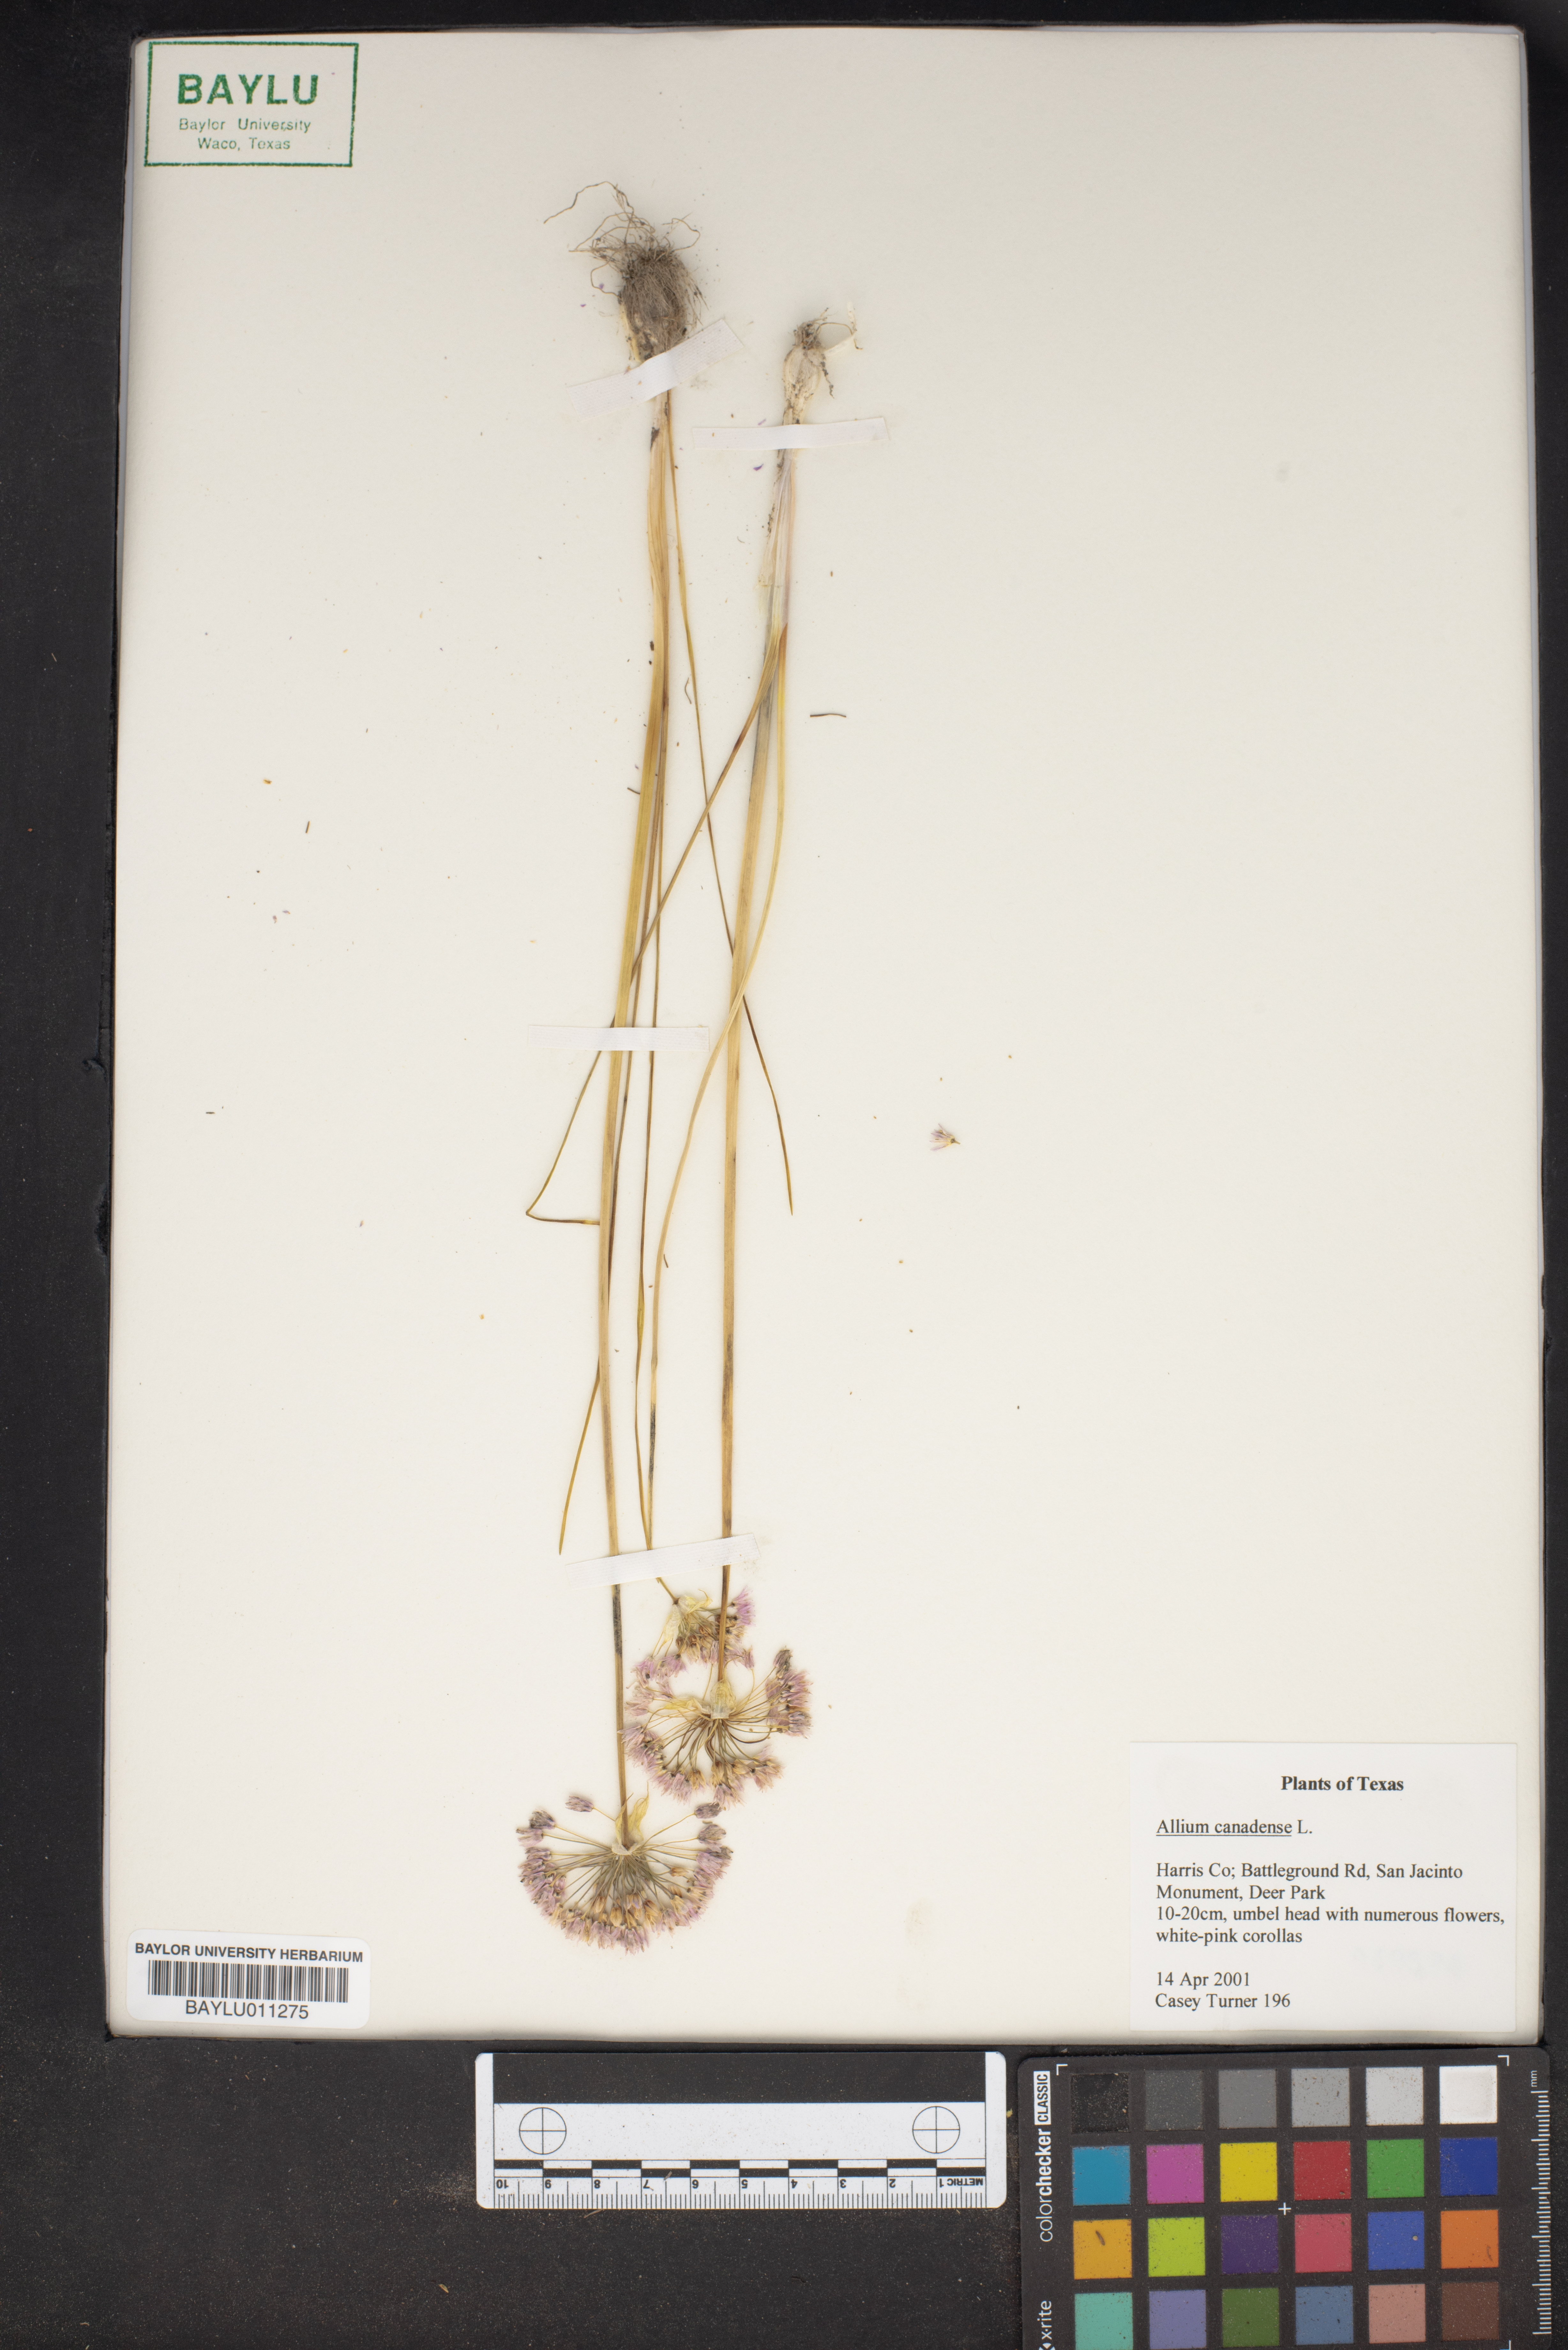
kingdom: Plantae
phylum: Tracheophyta
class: Liliopsida
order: Asparagales
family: Amaryllidaceae
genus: Allium
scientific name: Allium canadense
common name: Meadow garlic
